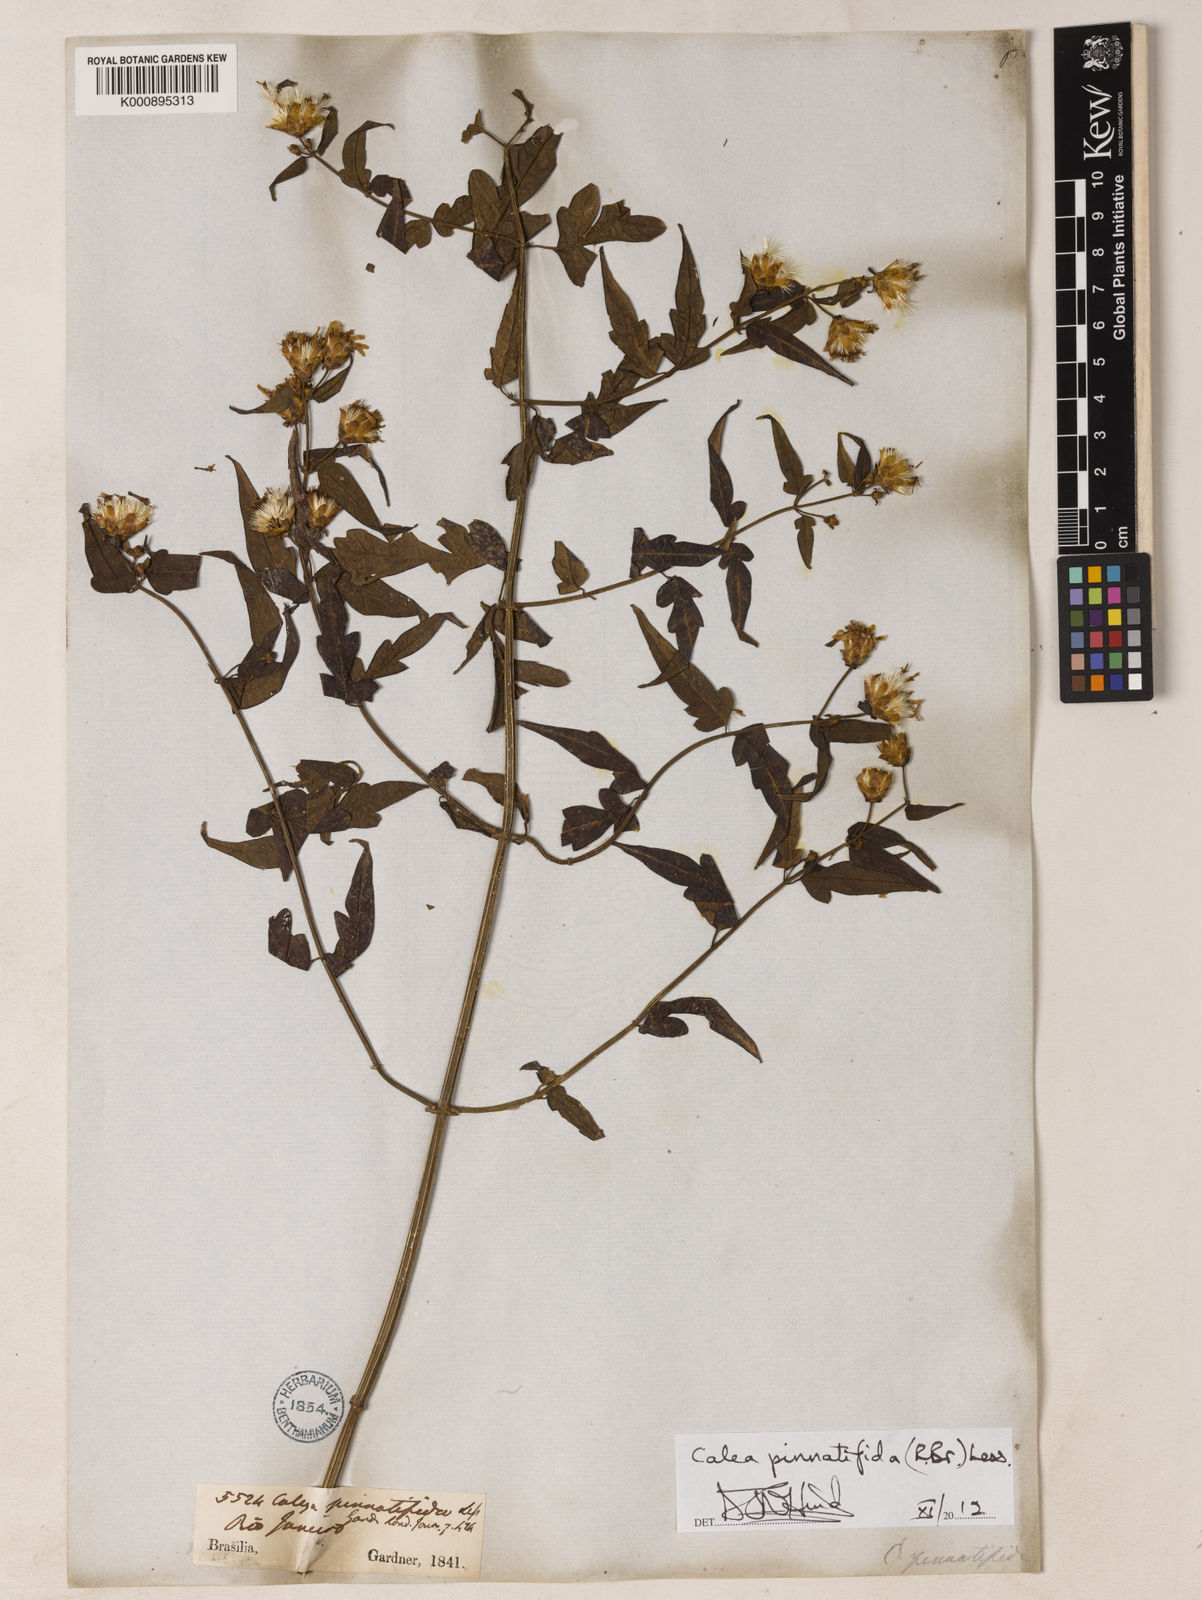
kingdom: Plantae
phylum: Tracheophyta
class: Magnoliopsida
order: Asterales
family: Asteraceae
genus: Calea
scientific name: Calea
